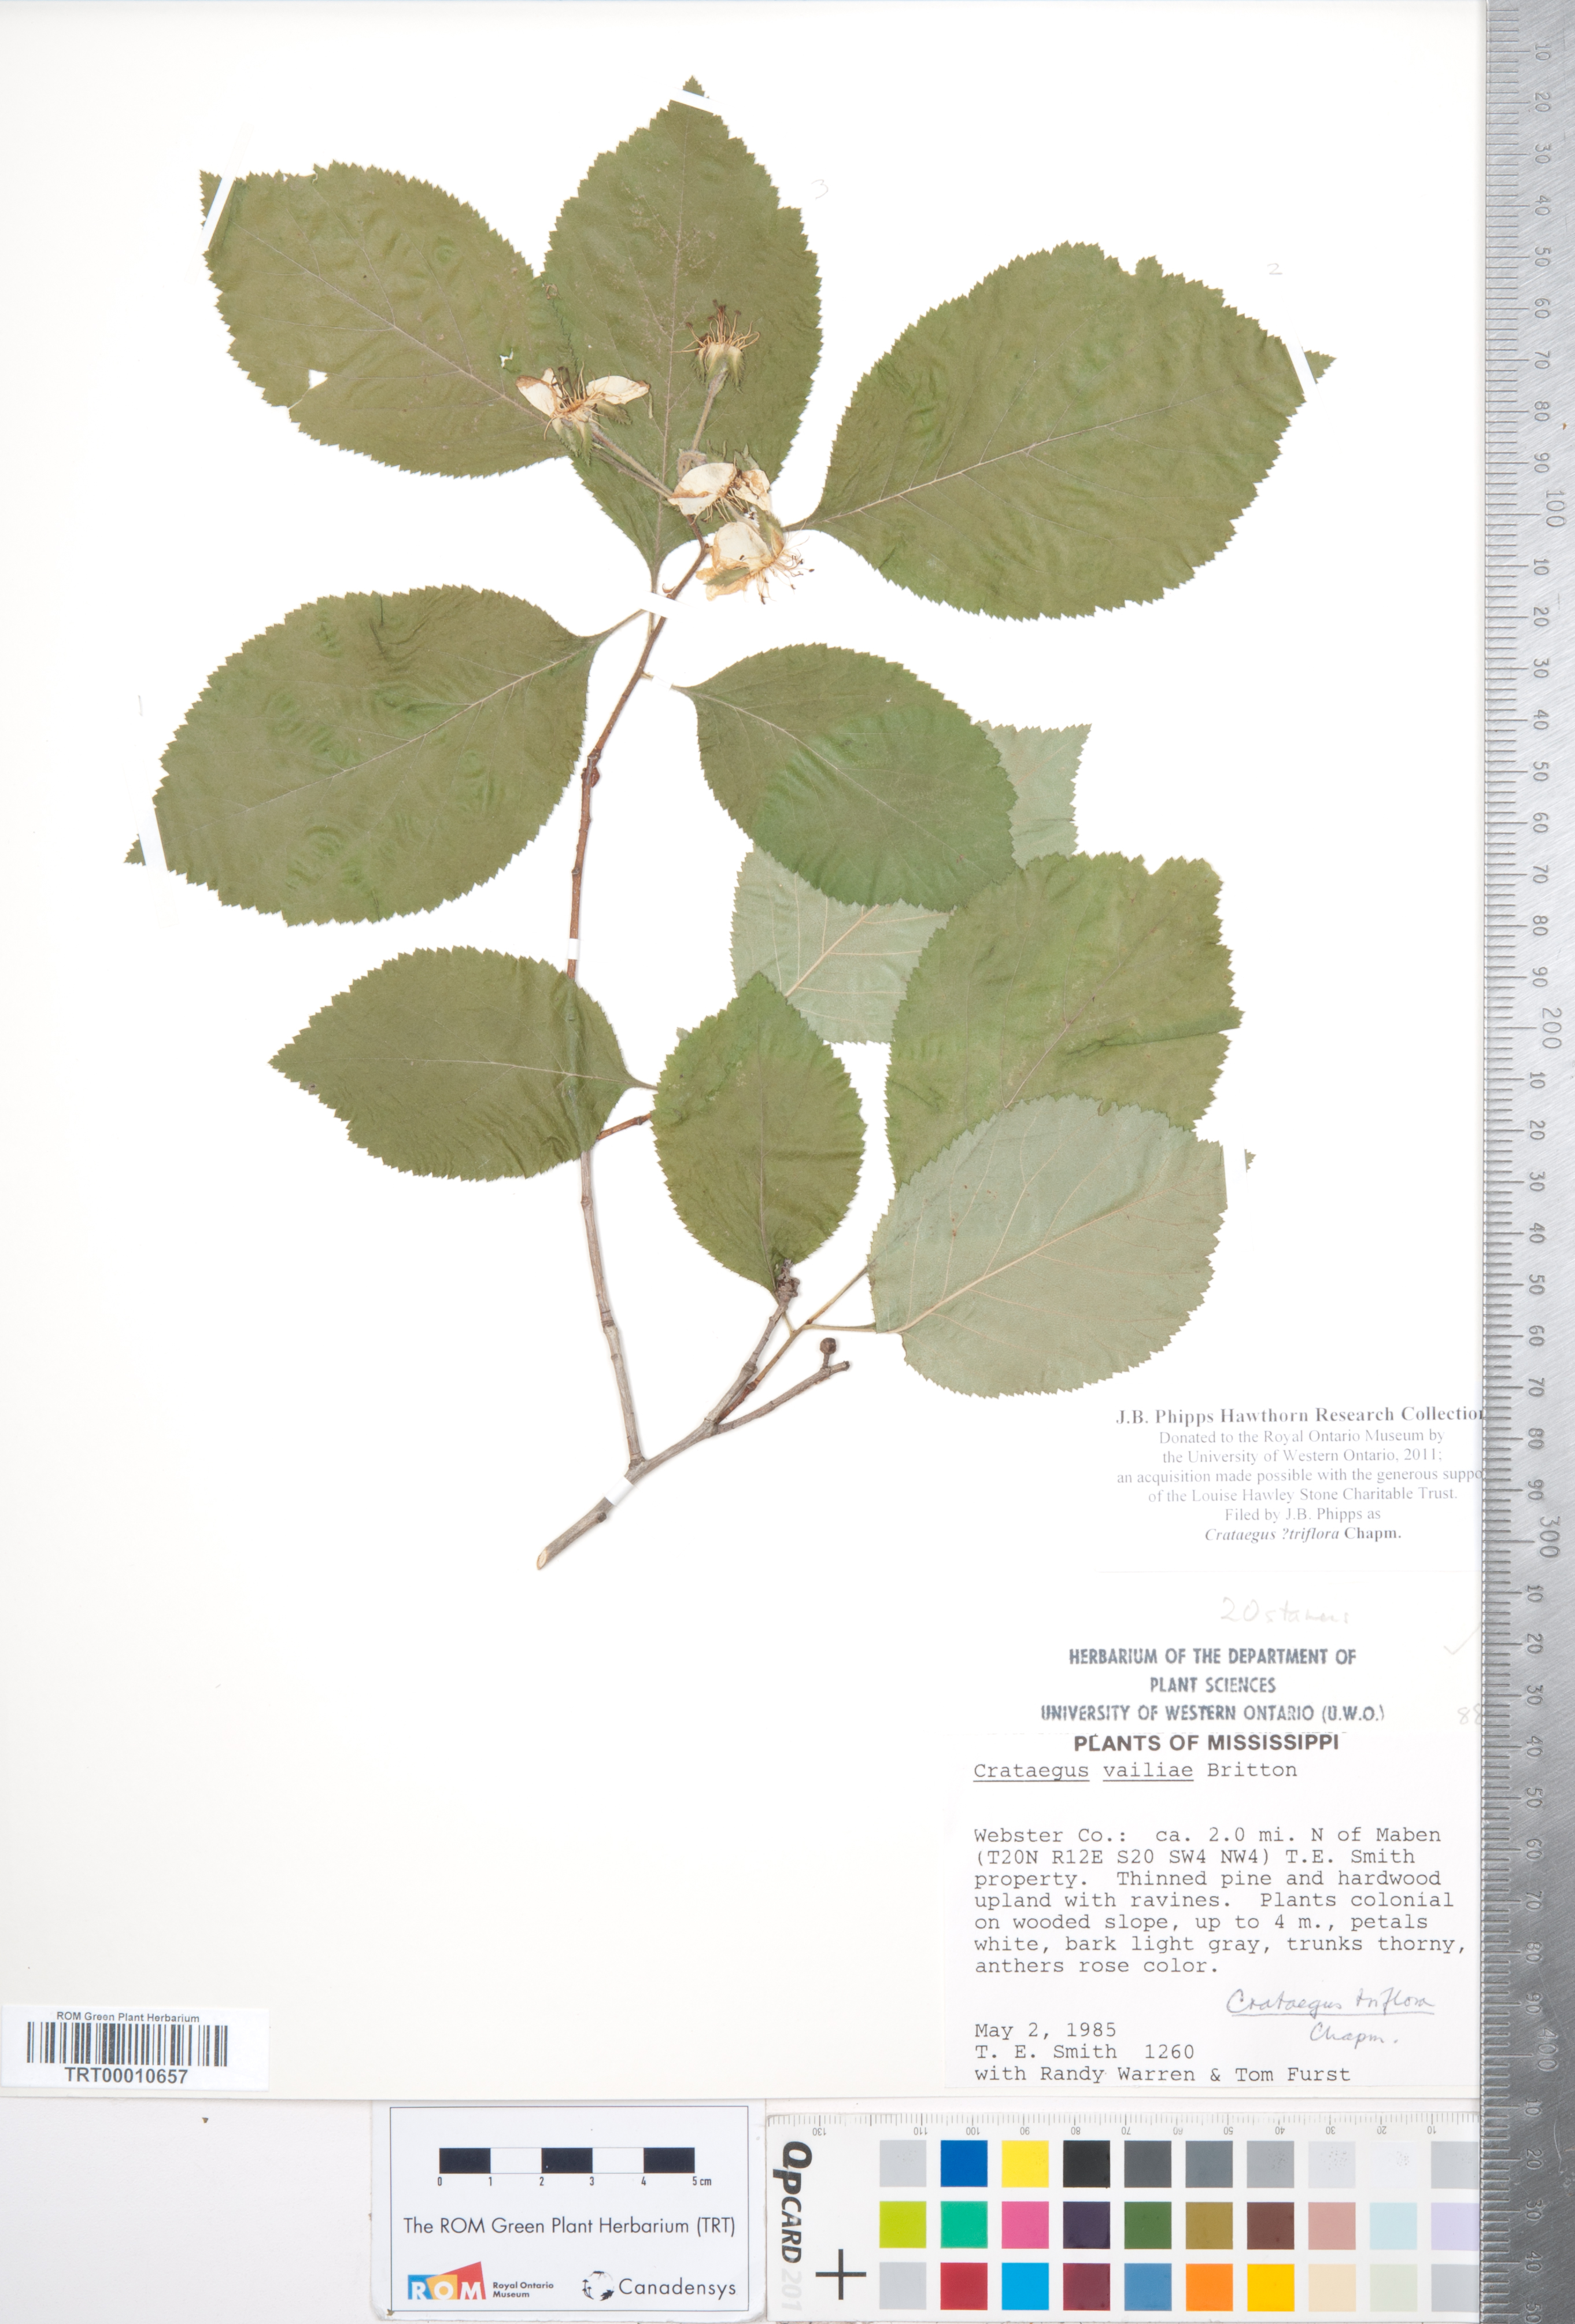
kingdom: Plantae
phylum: Tracheophyta
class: Magnoliopsida
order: Rosales
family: Rosaceae
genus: Crataegus
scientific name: Crataegus triflora
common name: Three-flower hawthorn
